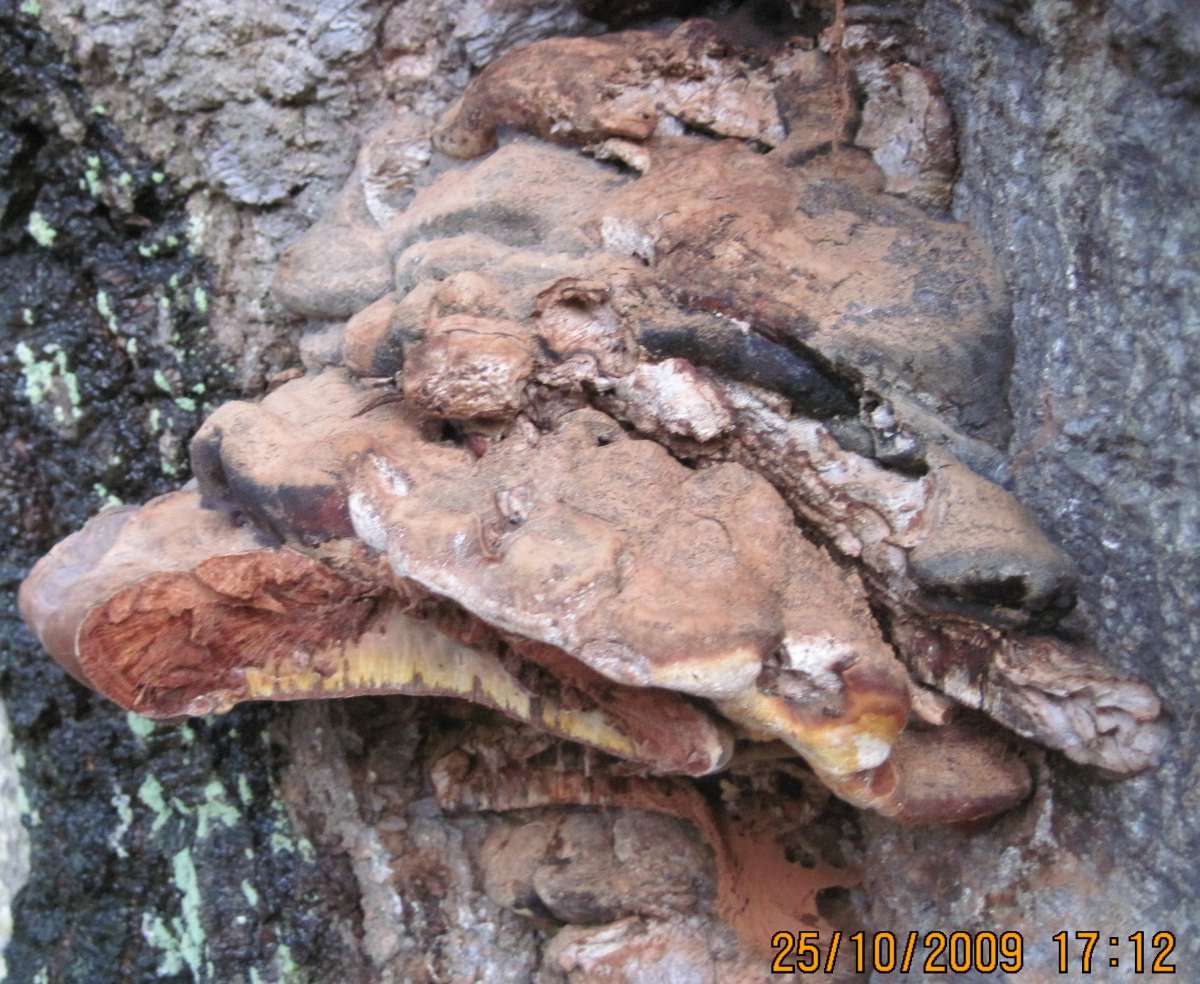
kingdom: Fungi
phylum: Basidiomycota
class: Agaricomycetes
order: Polyporales
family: Polyporaceae
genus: Ganoderma
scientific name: Ganoderma pfeifferi
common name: kobberrød lakporesvamp
